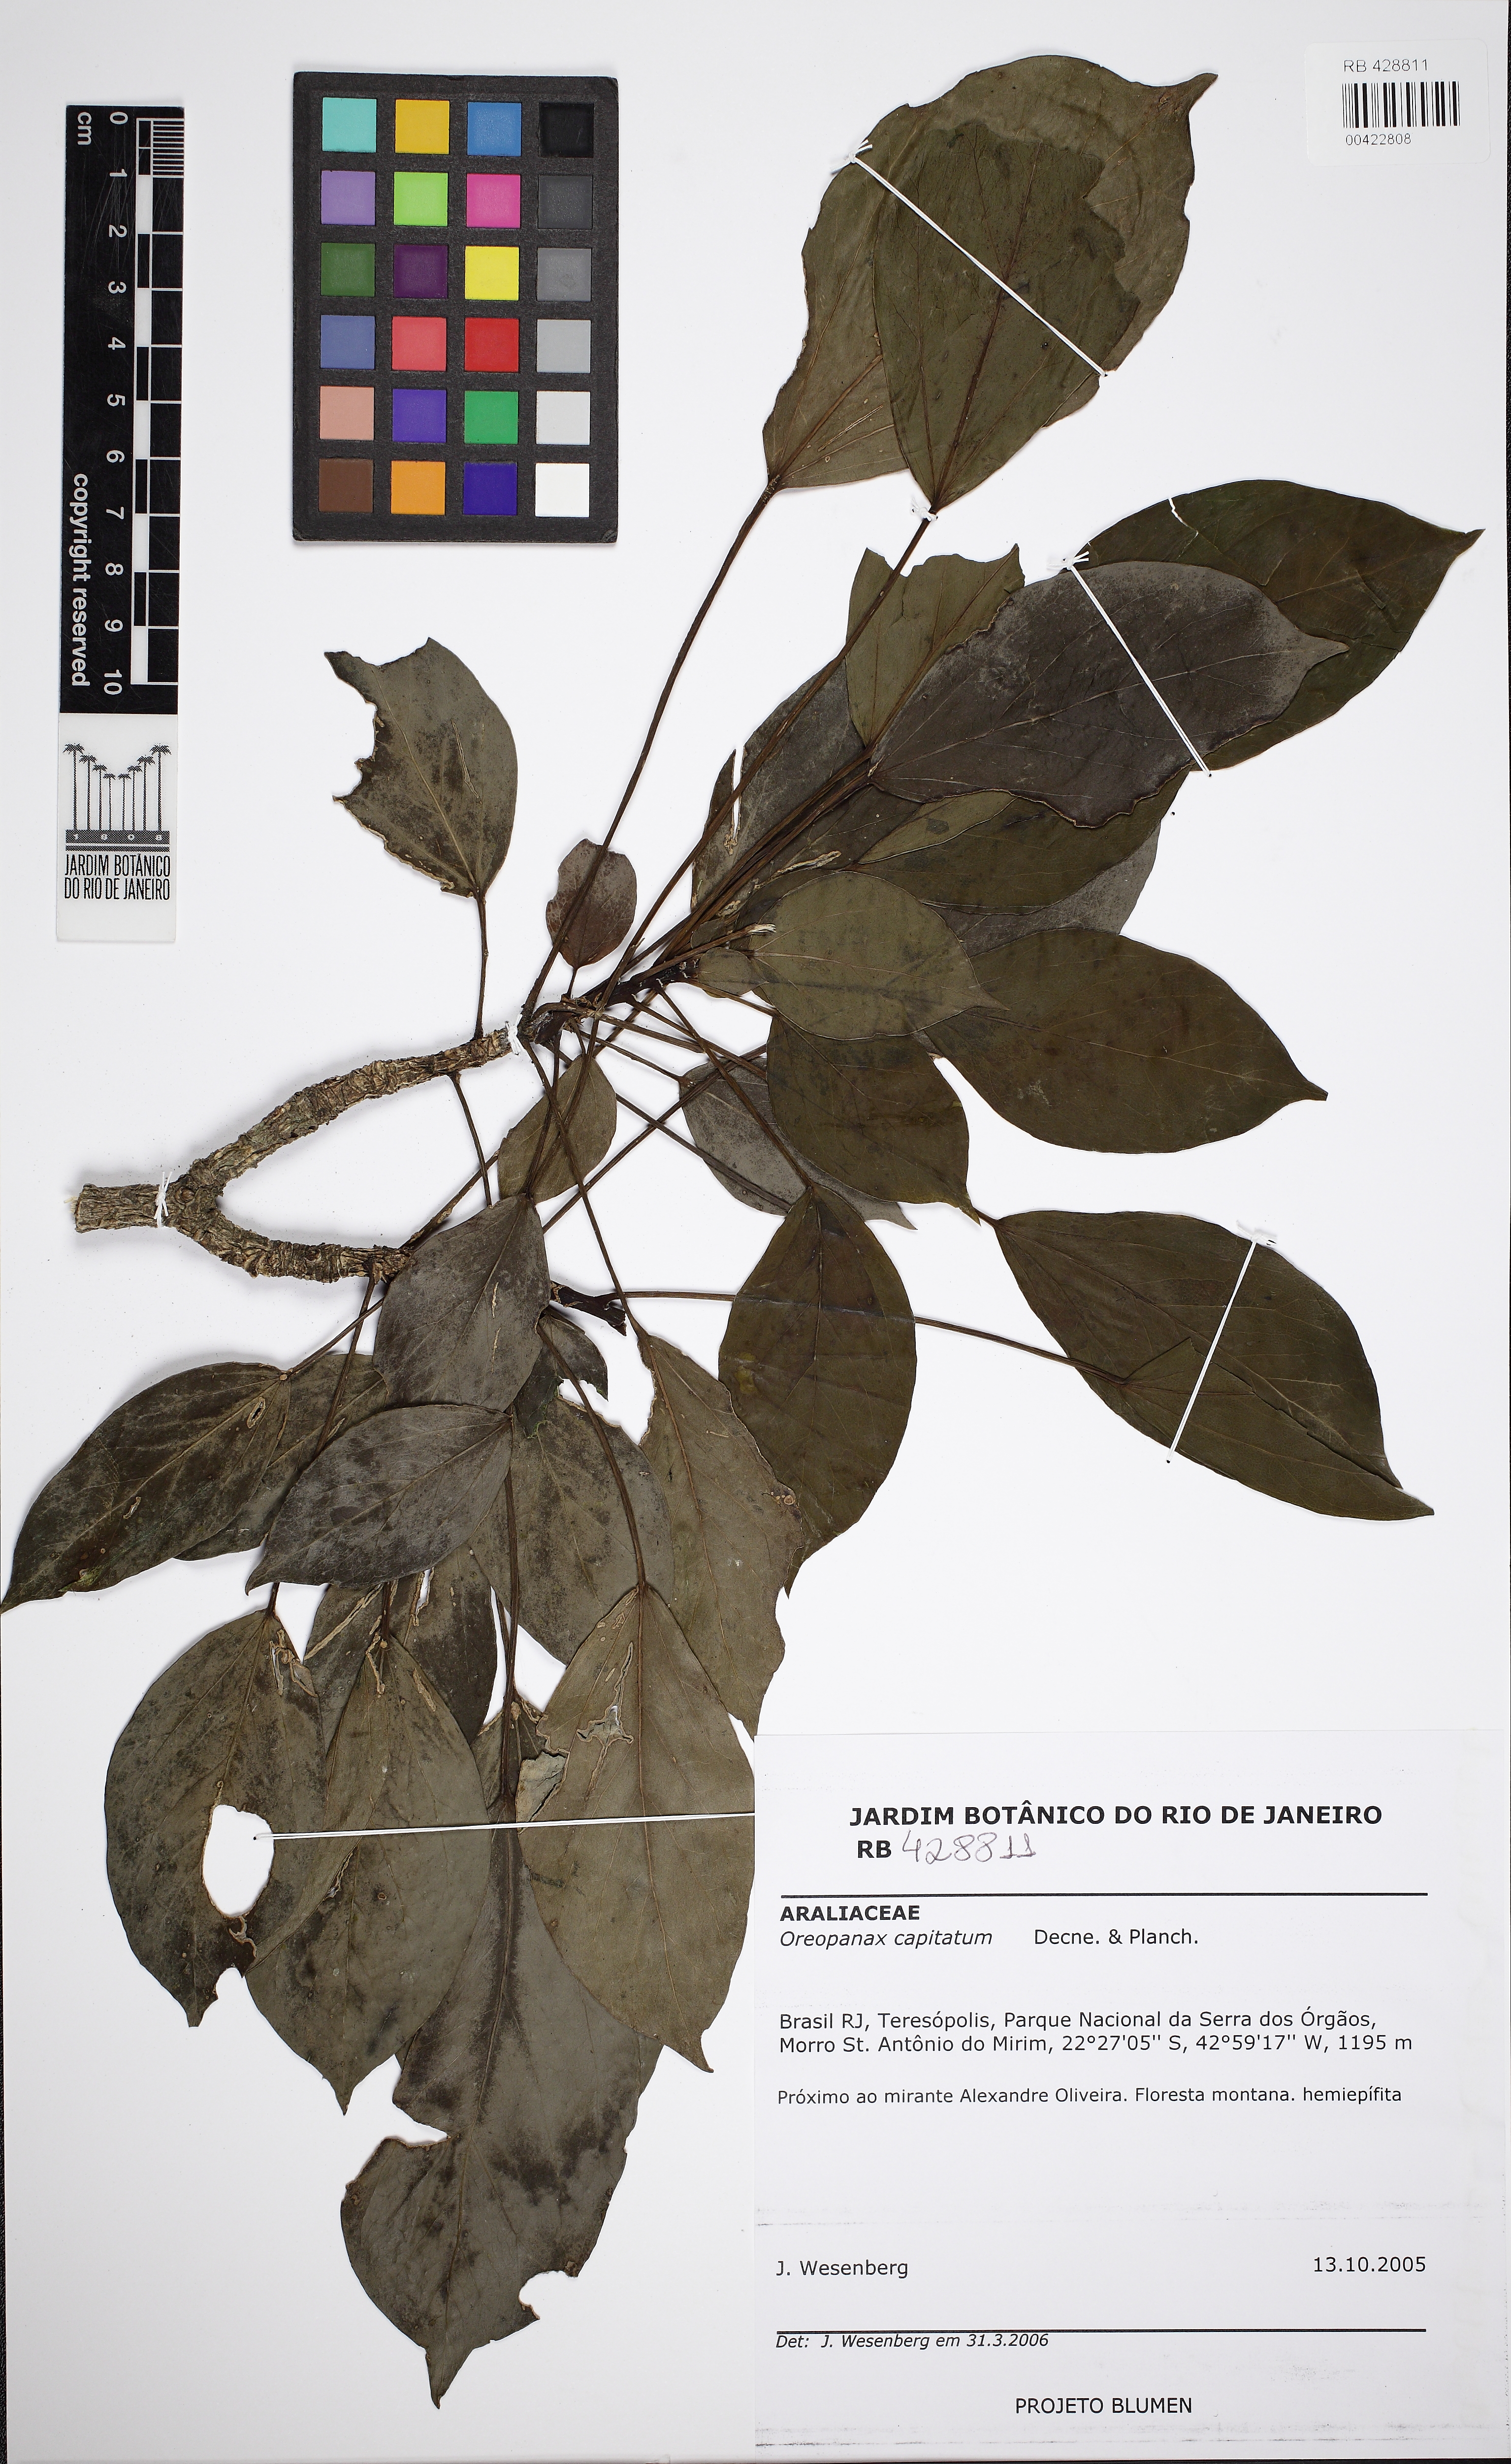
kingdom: Plantae
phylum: Tracheophyta
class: Magnoliopsida
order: Apiales
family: Araliaceae
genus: Oreopanax
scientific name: Oreopanax capitatus
